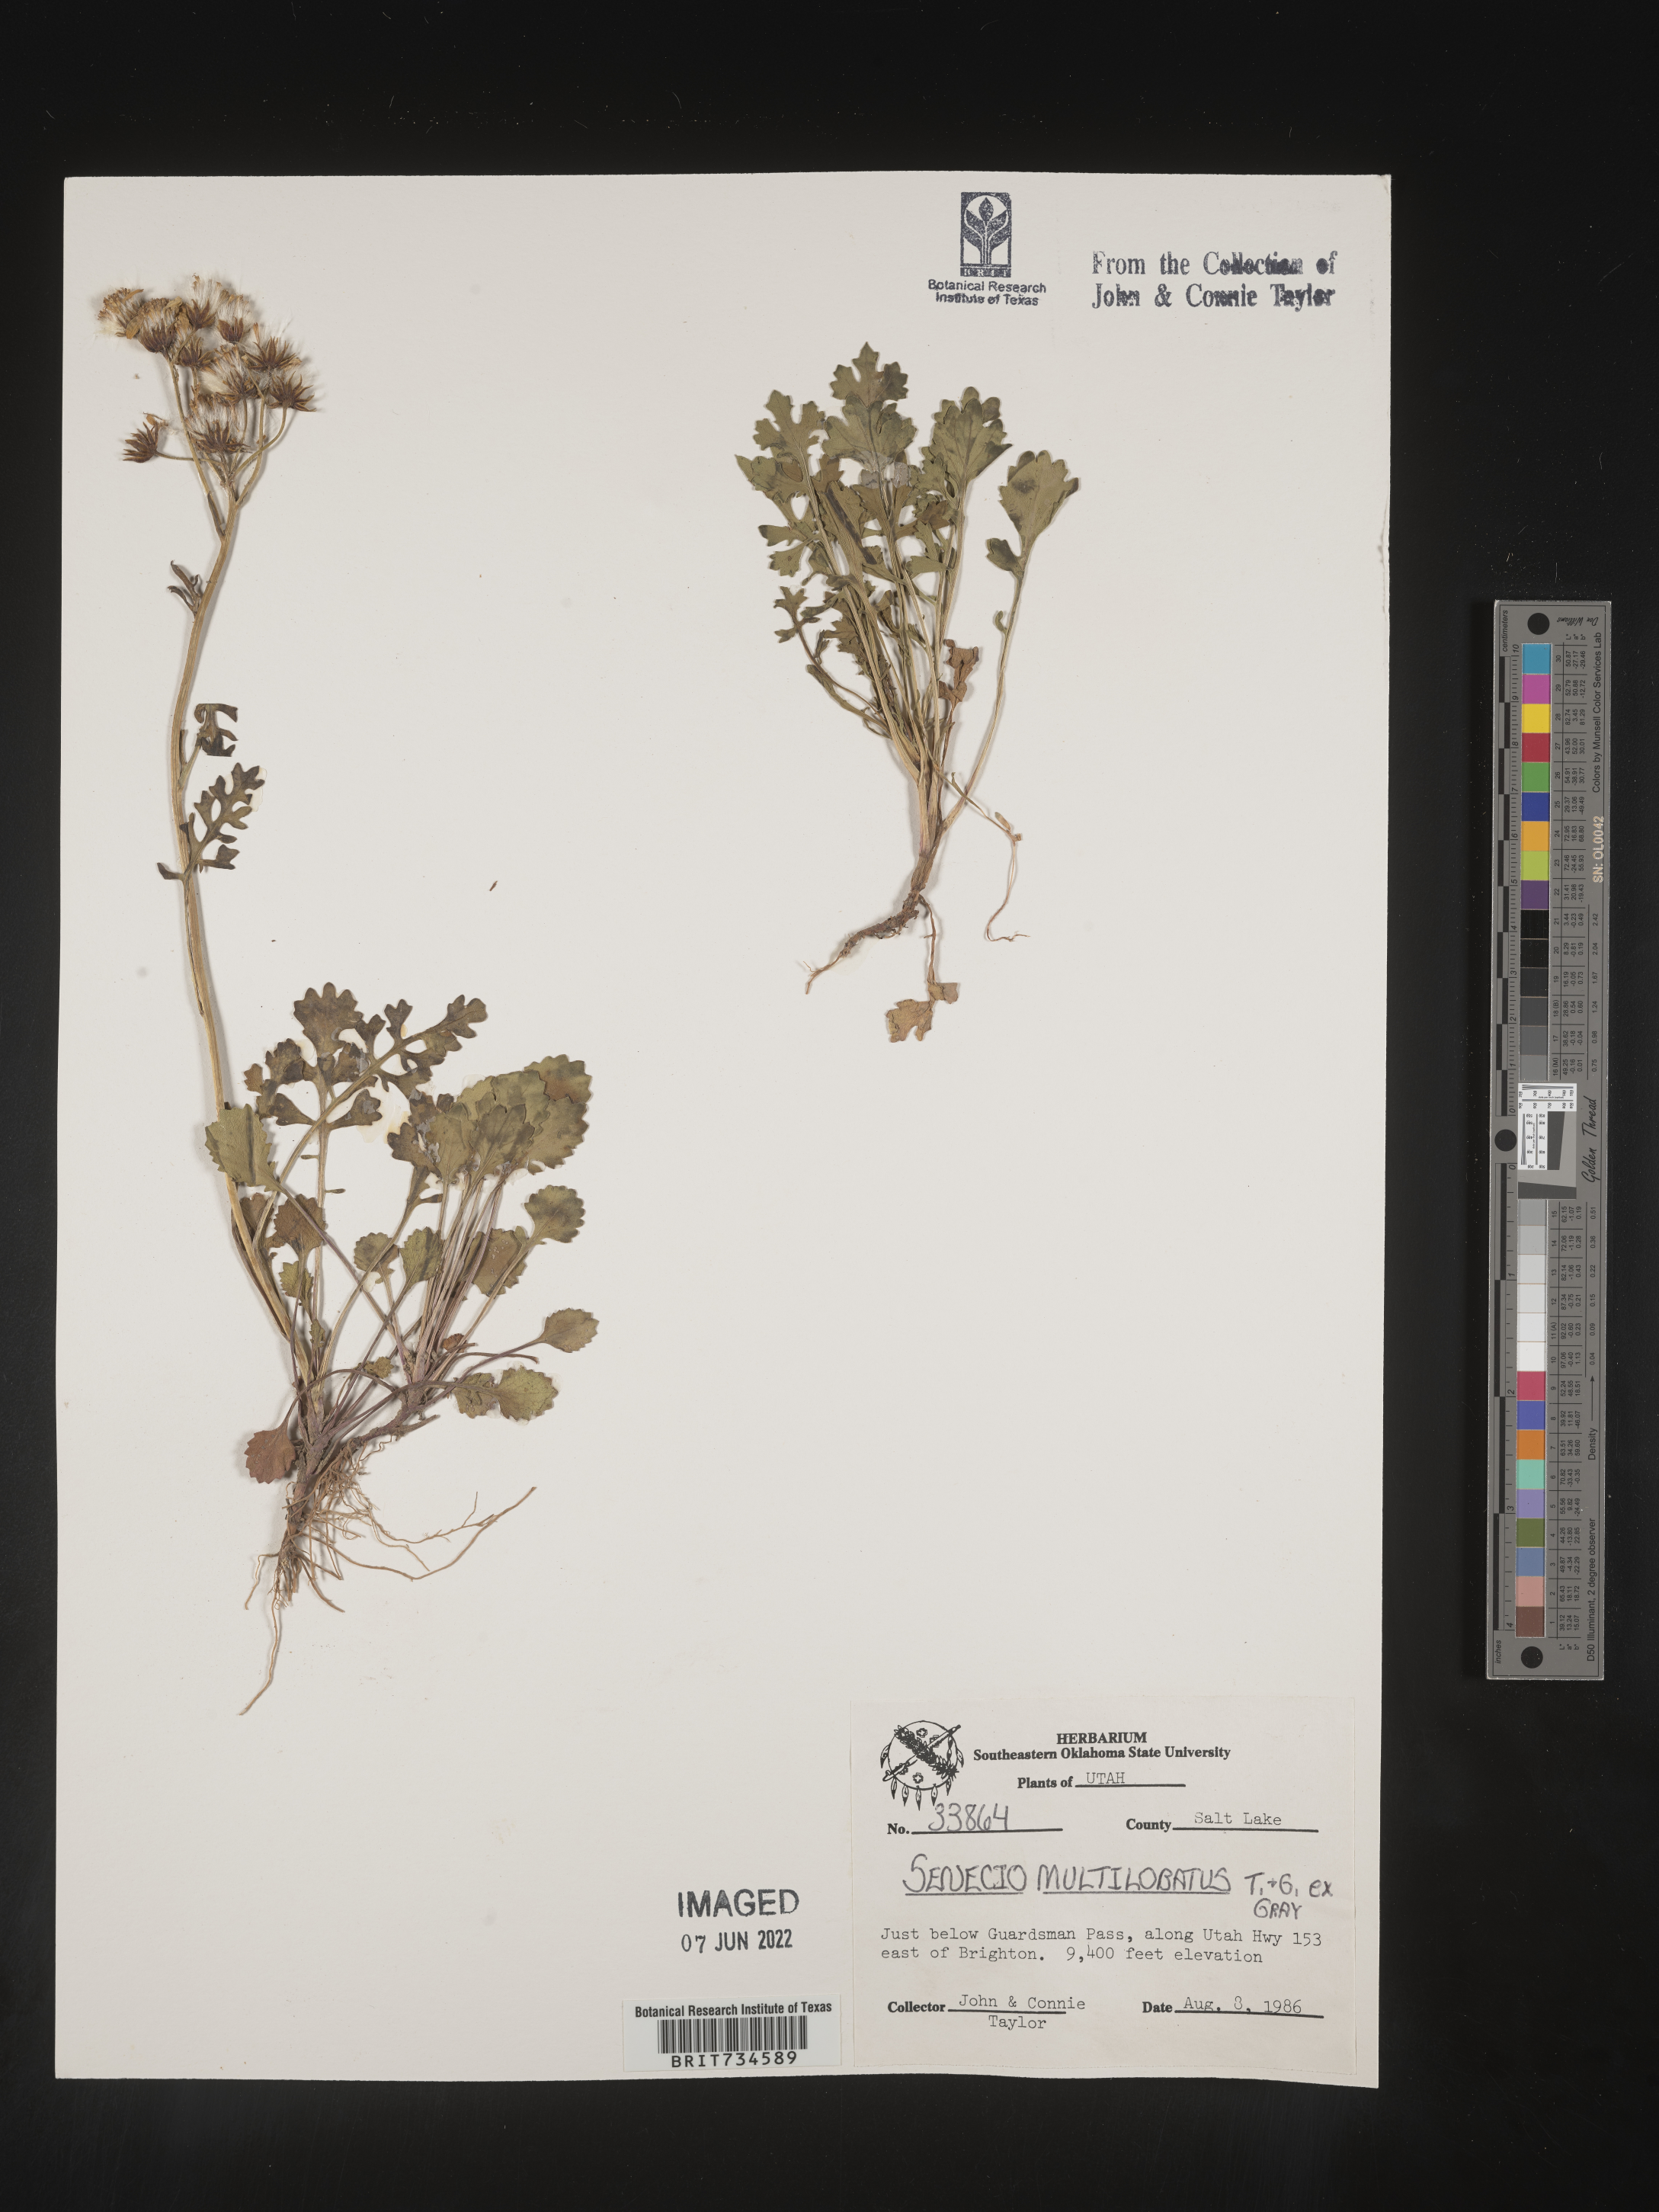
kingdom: Plantae
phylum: Tracheophyta
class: Magnoliopsida
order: Asterales
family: Asteraceae
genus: Packera
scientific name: Packera multilobata
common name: Lobe-leaf groundsel
